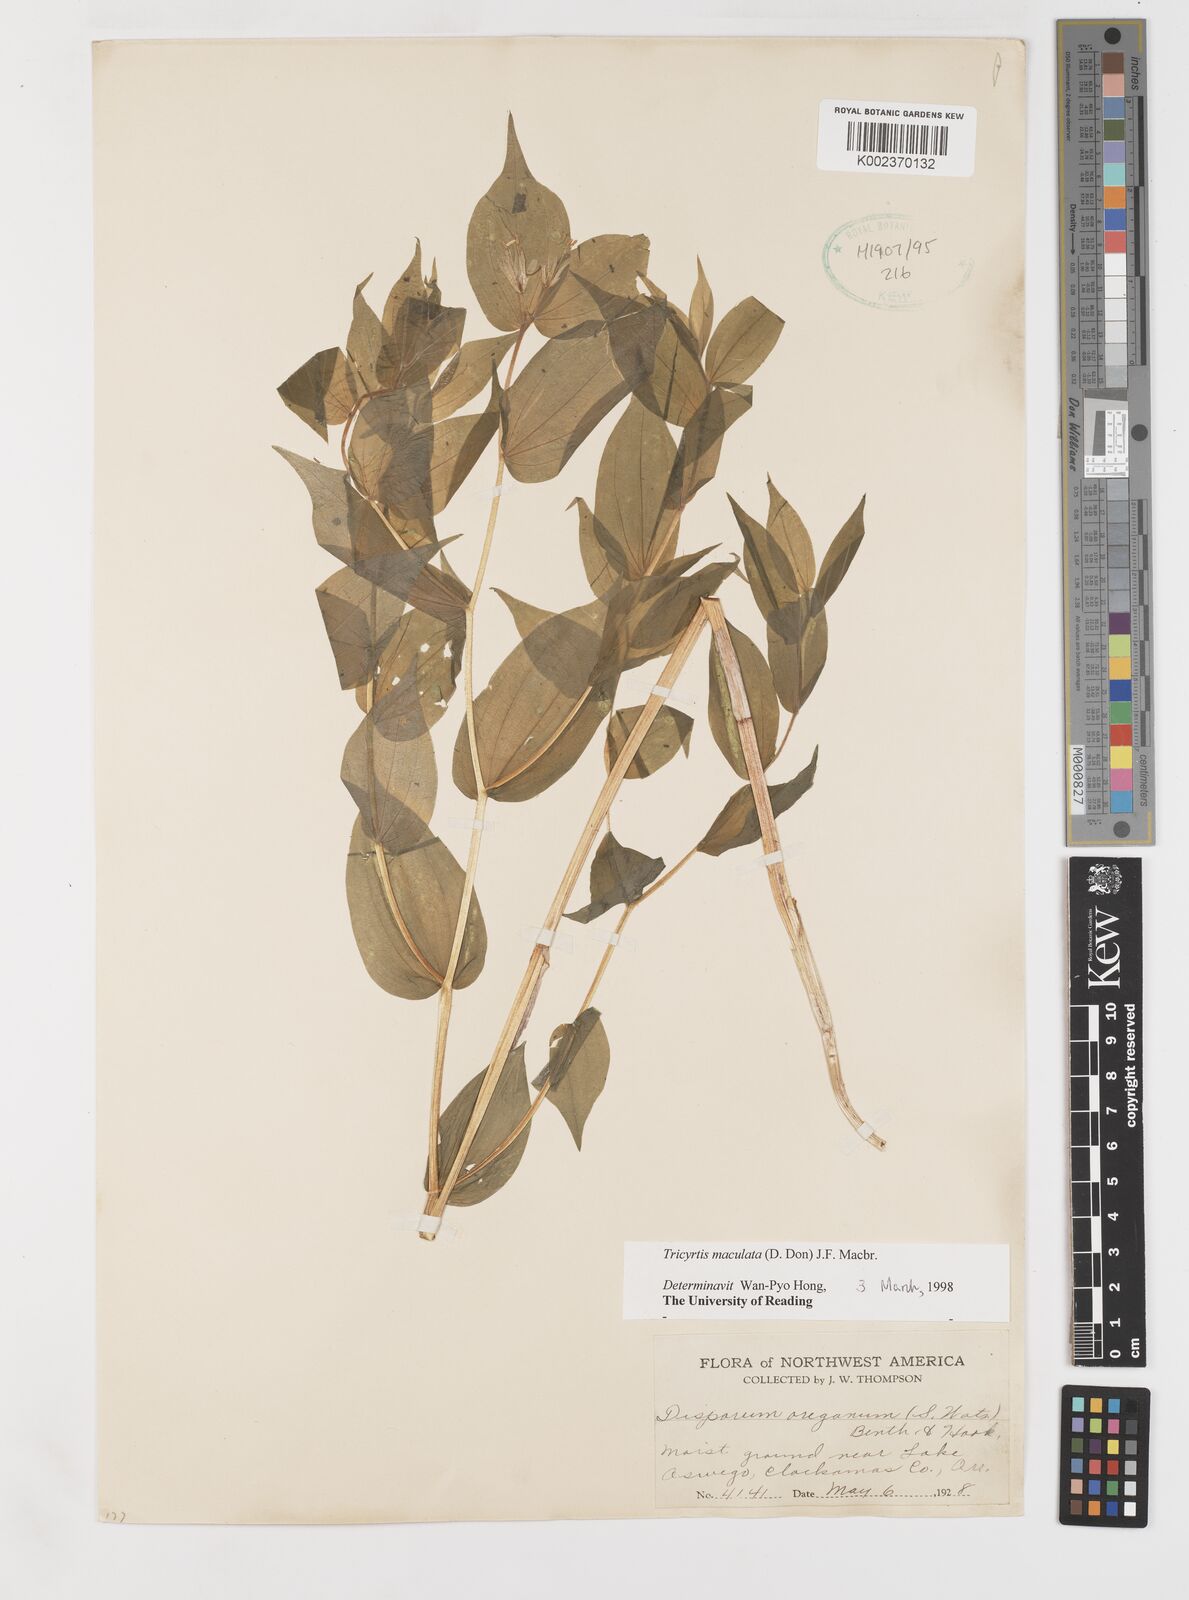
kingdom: Plantae
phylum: Tracheophyta
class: Liliopsida
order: Liliales
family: Liliaceae
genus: Prosartes
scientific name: Prosartes hookeri
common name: Fairy-bells
